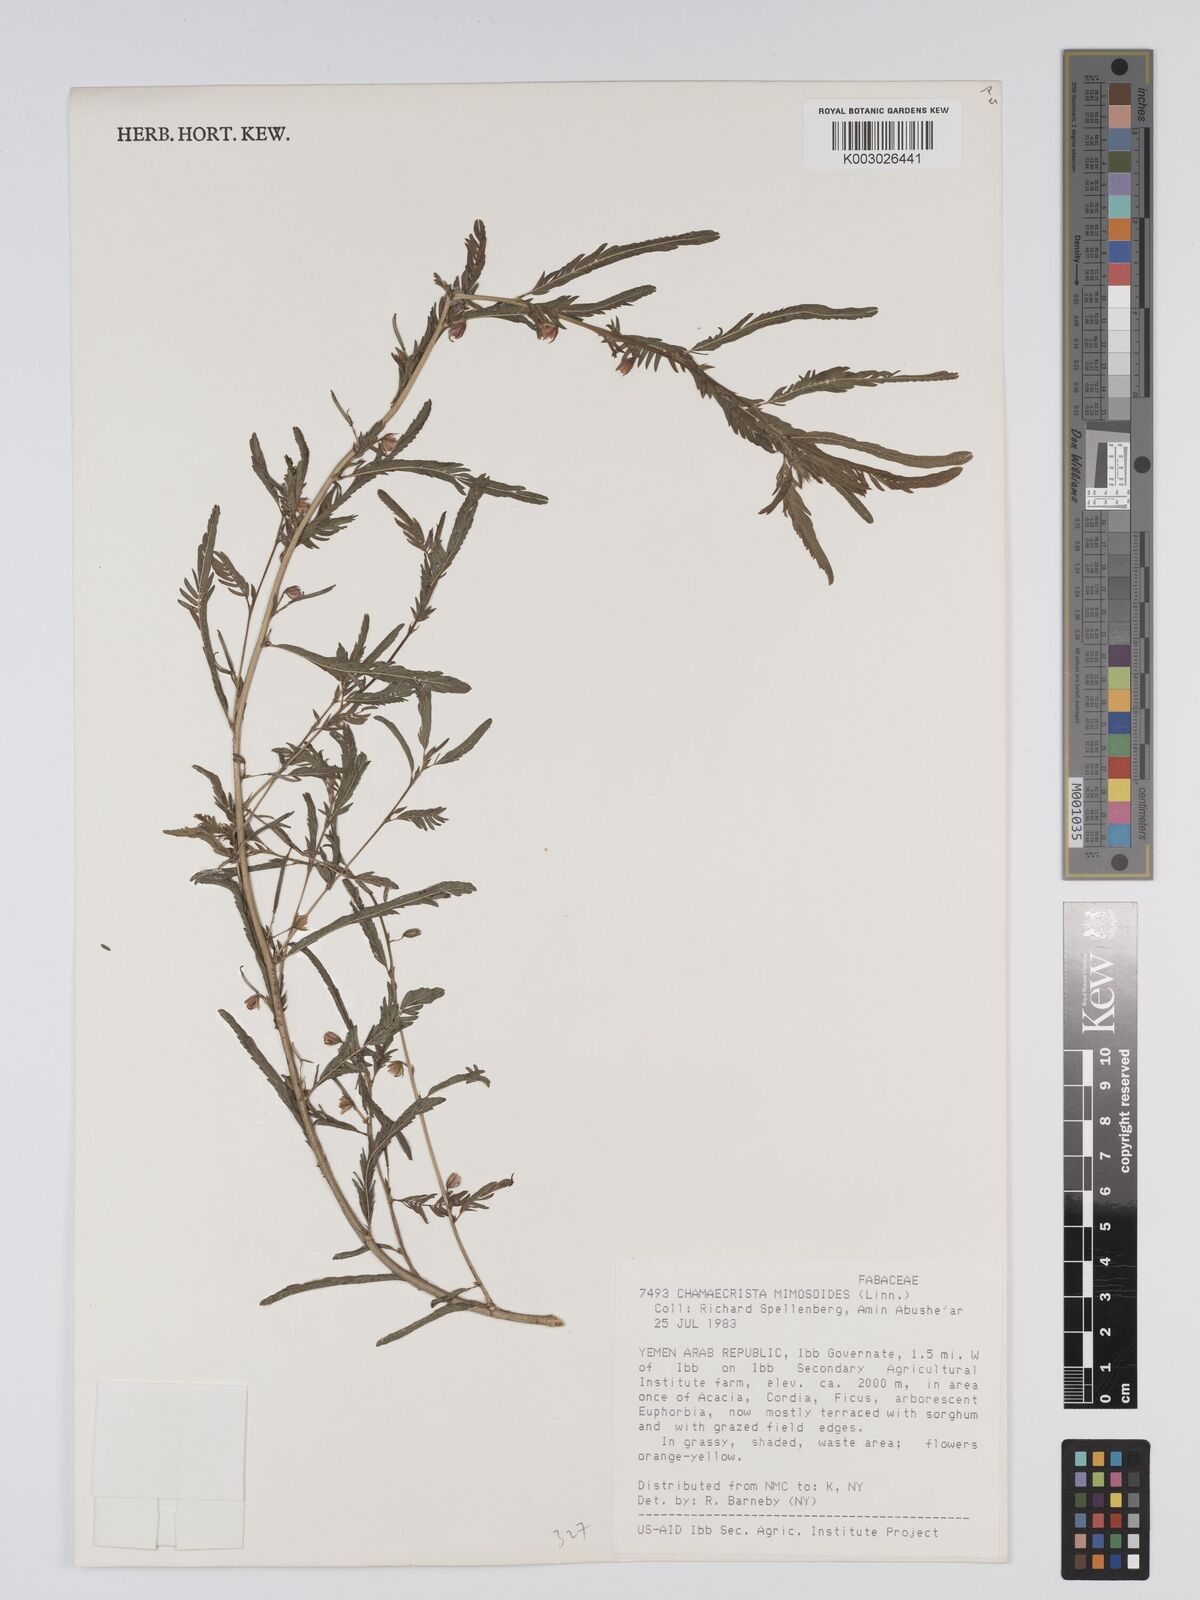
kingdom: Plantae
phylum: Tracheophyta
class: Magnoliopsida
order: Fabales
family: Fabaceae
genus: Chamaecrista
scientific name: Chamaecrista mimosoides
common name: Fish-bone cassia
